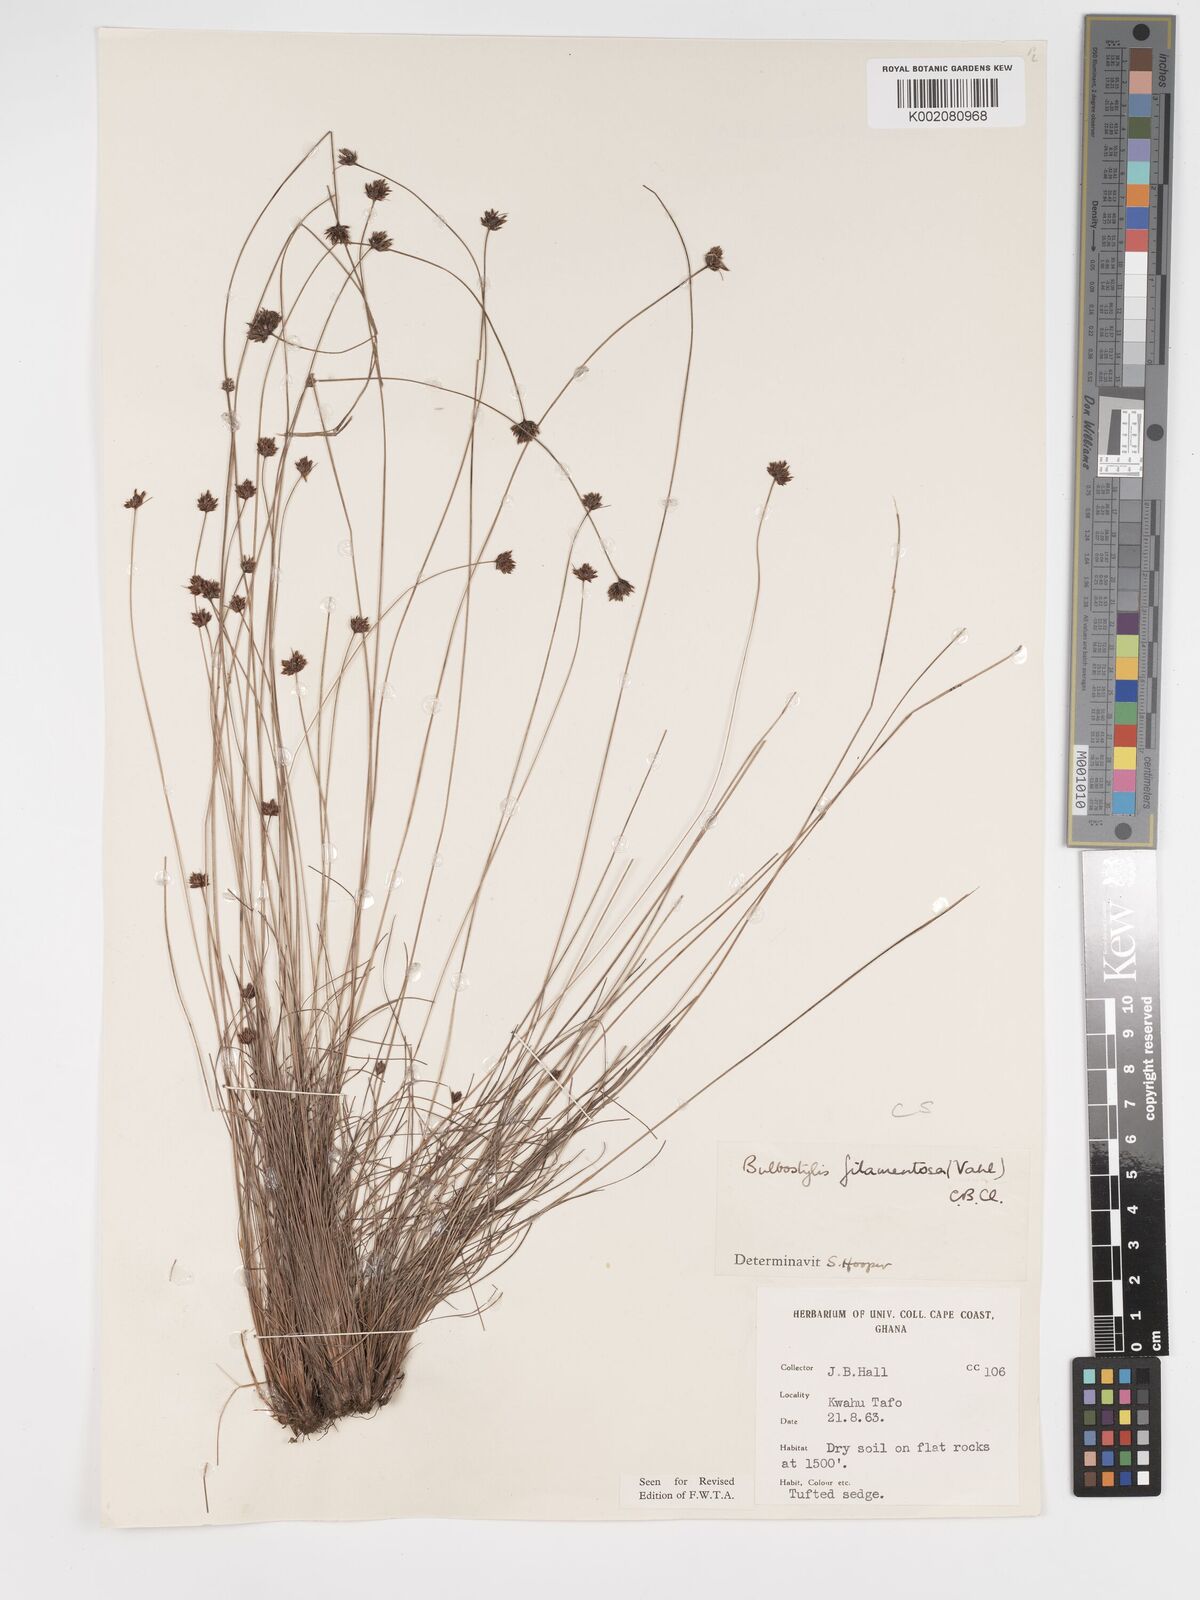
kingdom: Plantae
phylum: Tracheophyta
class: Liliopsida
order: Poales
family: Cyperaceae
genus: Bulbostylis
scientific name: Bulbostylis filamentosa
